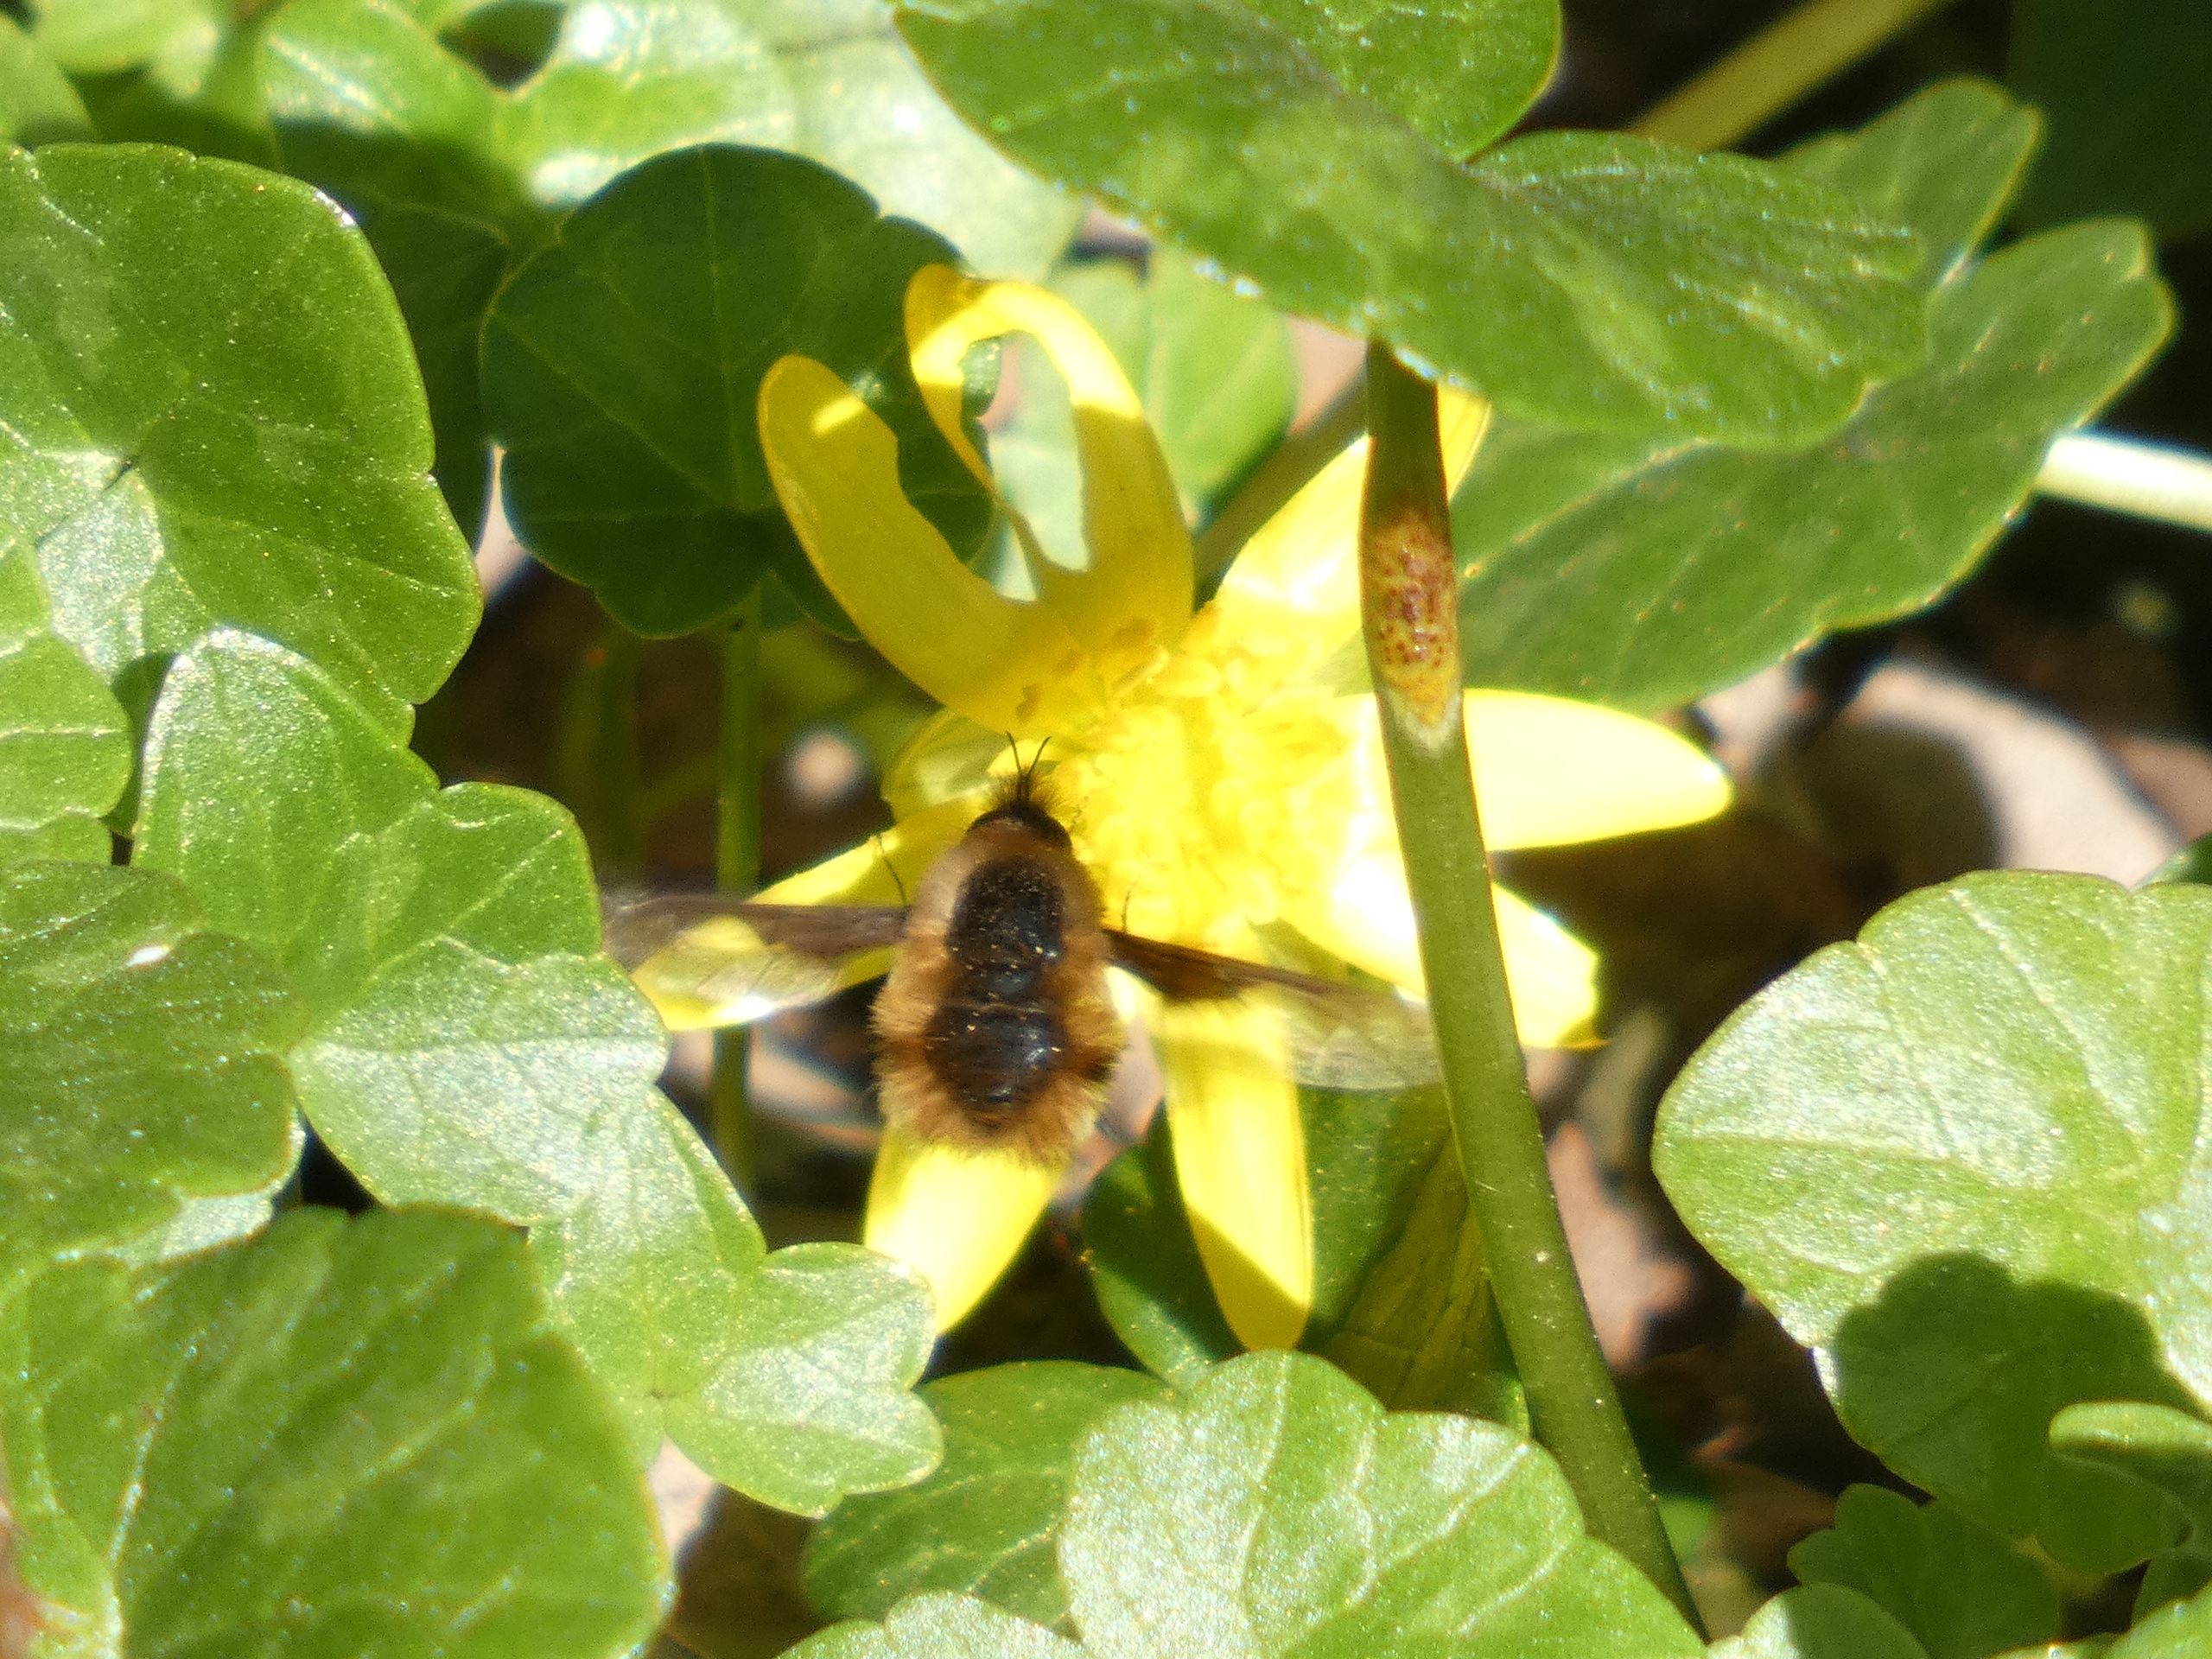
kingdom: Animalia
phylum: Arthropoda
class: Insecta
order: Diptera
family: Bombyliidae
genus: Bombylius
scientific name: Bombylius major
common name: Stor humleflue
